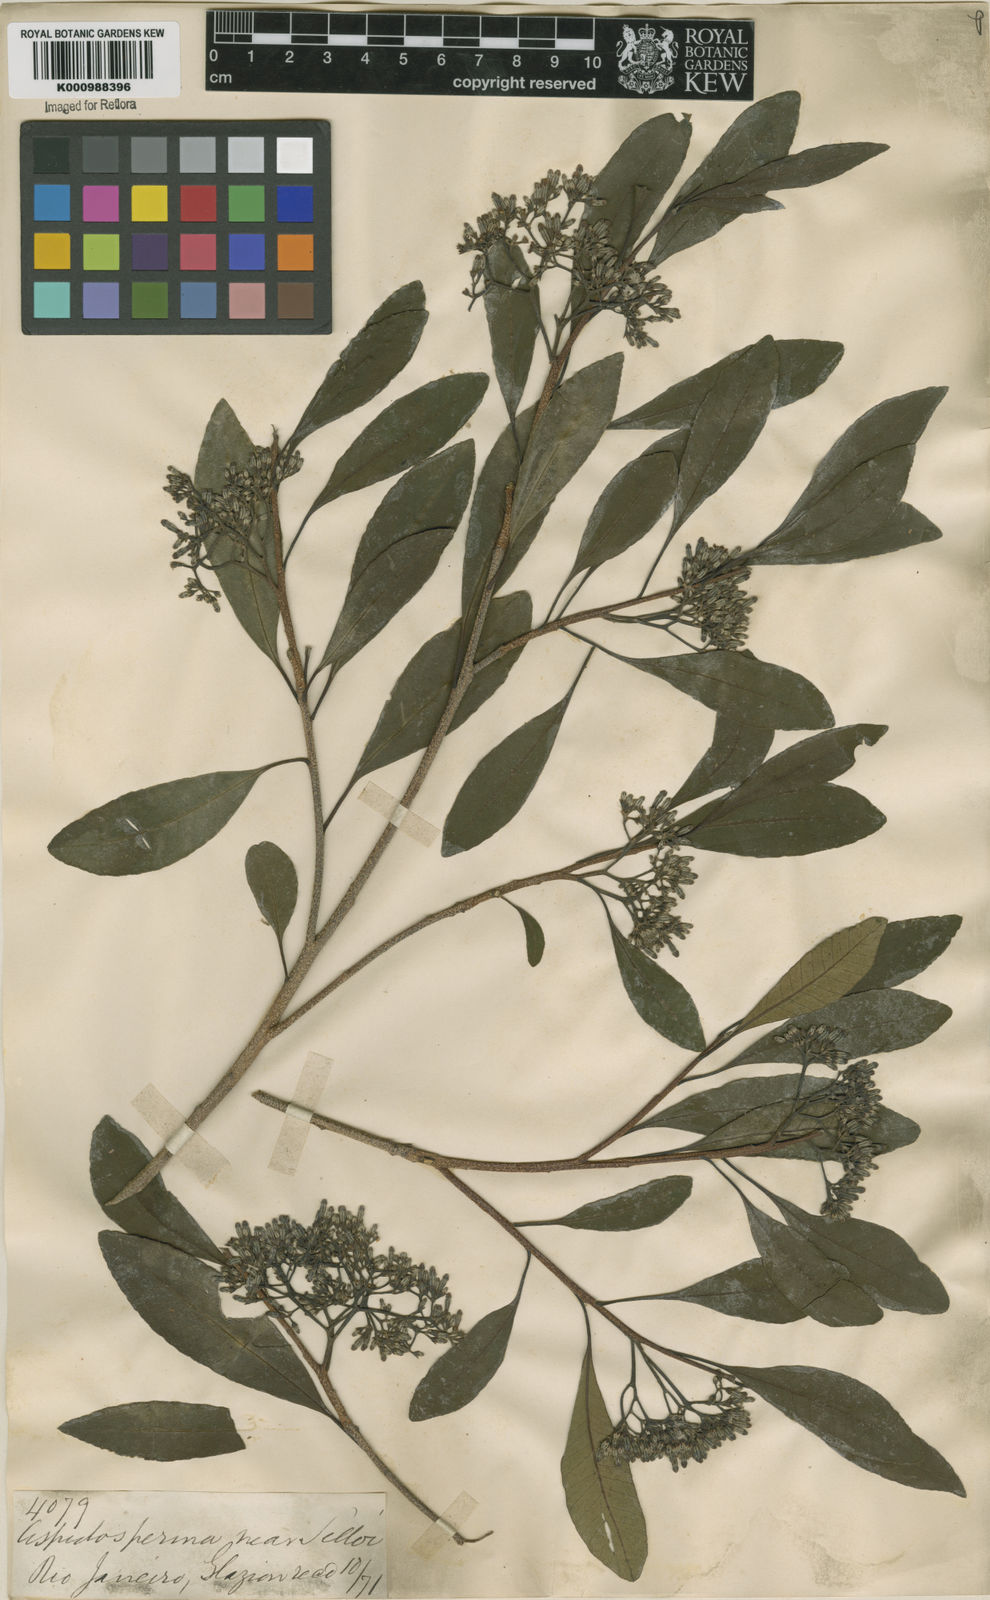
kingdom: Plantae
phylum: Tracheophyta
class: Magnoliopsida
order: Gentianales
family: Apocynaceae
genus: Aspidosperma
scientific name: Aspidosperma
